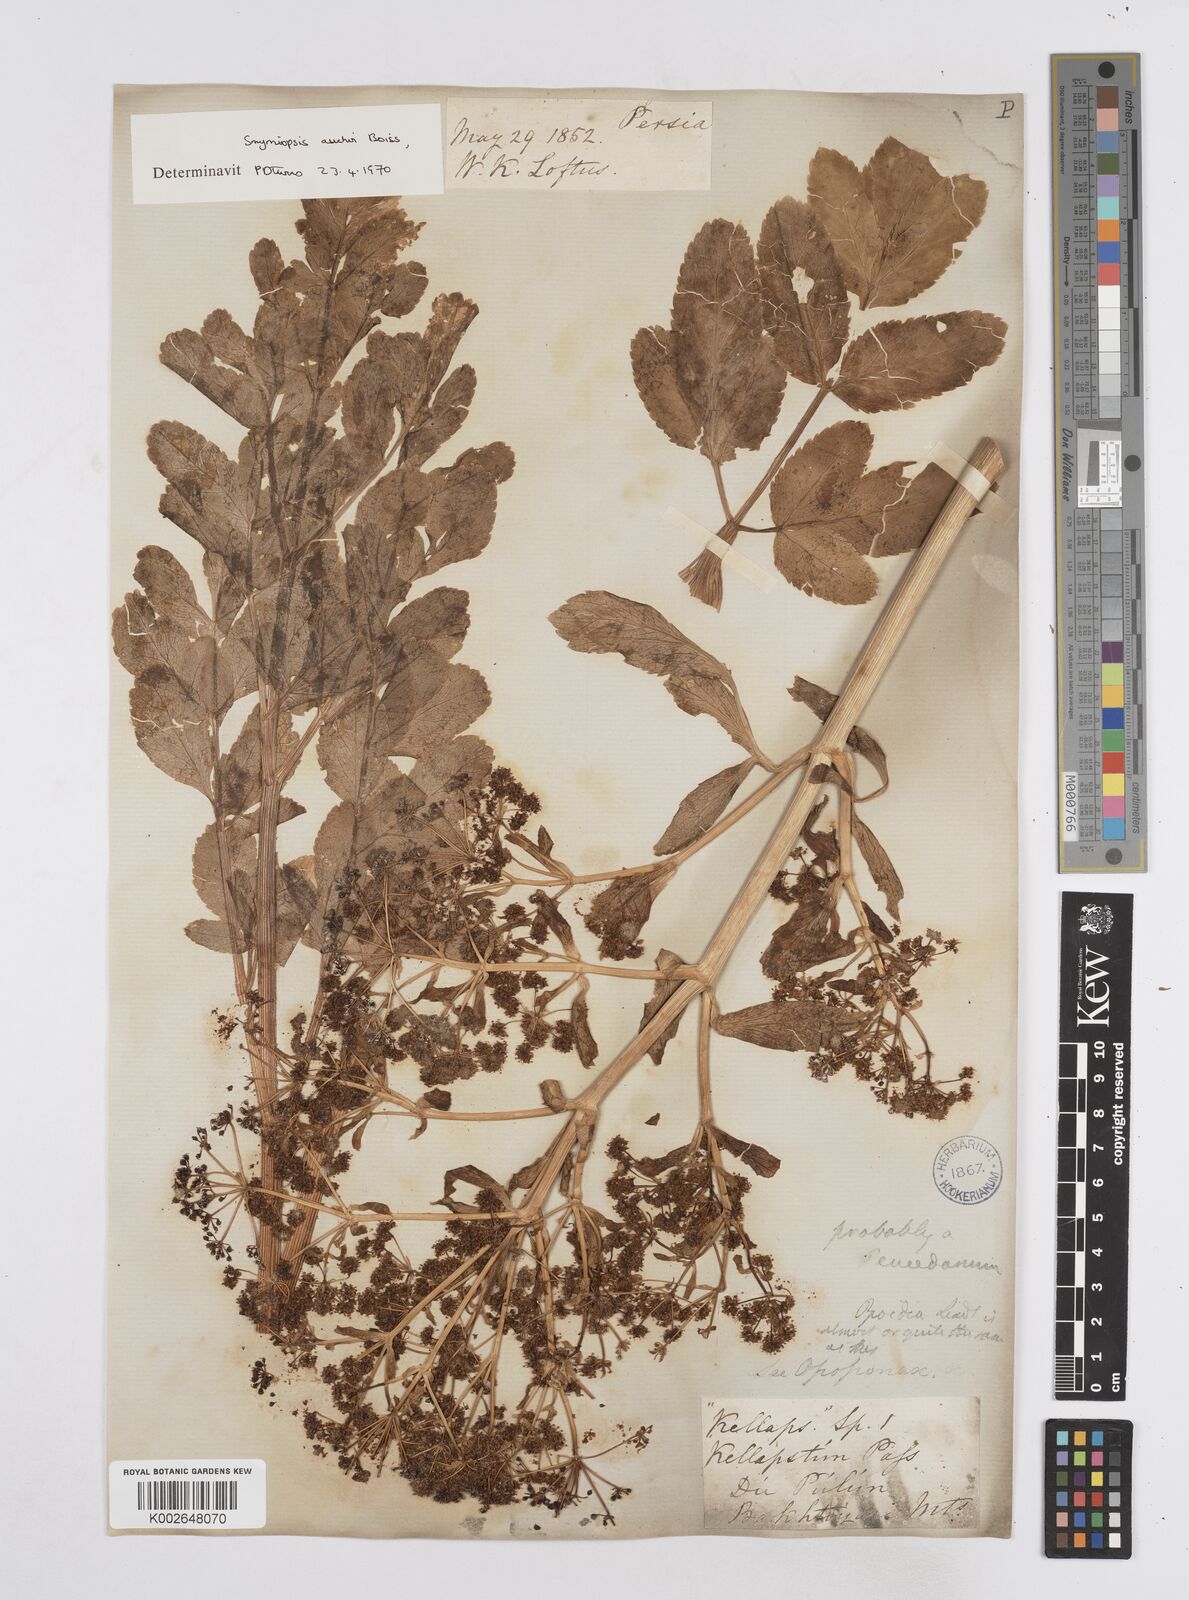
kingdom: Plantae
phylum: Tracheophyta
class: Magnoliopsida
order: Apiales
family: Apiaceae
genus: Smyrniopsis
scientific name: Smyrniopsis aucheri
